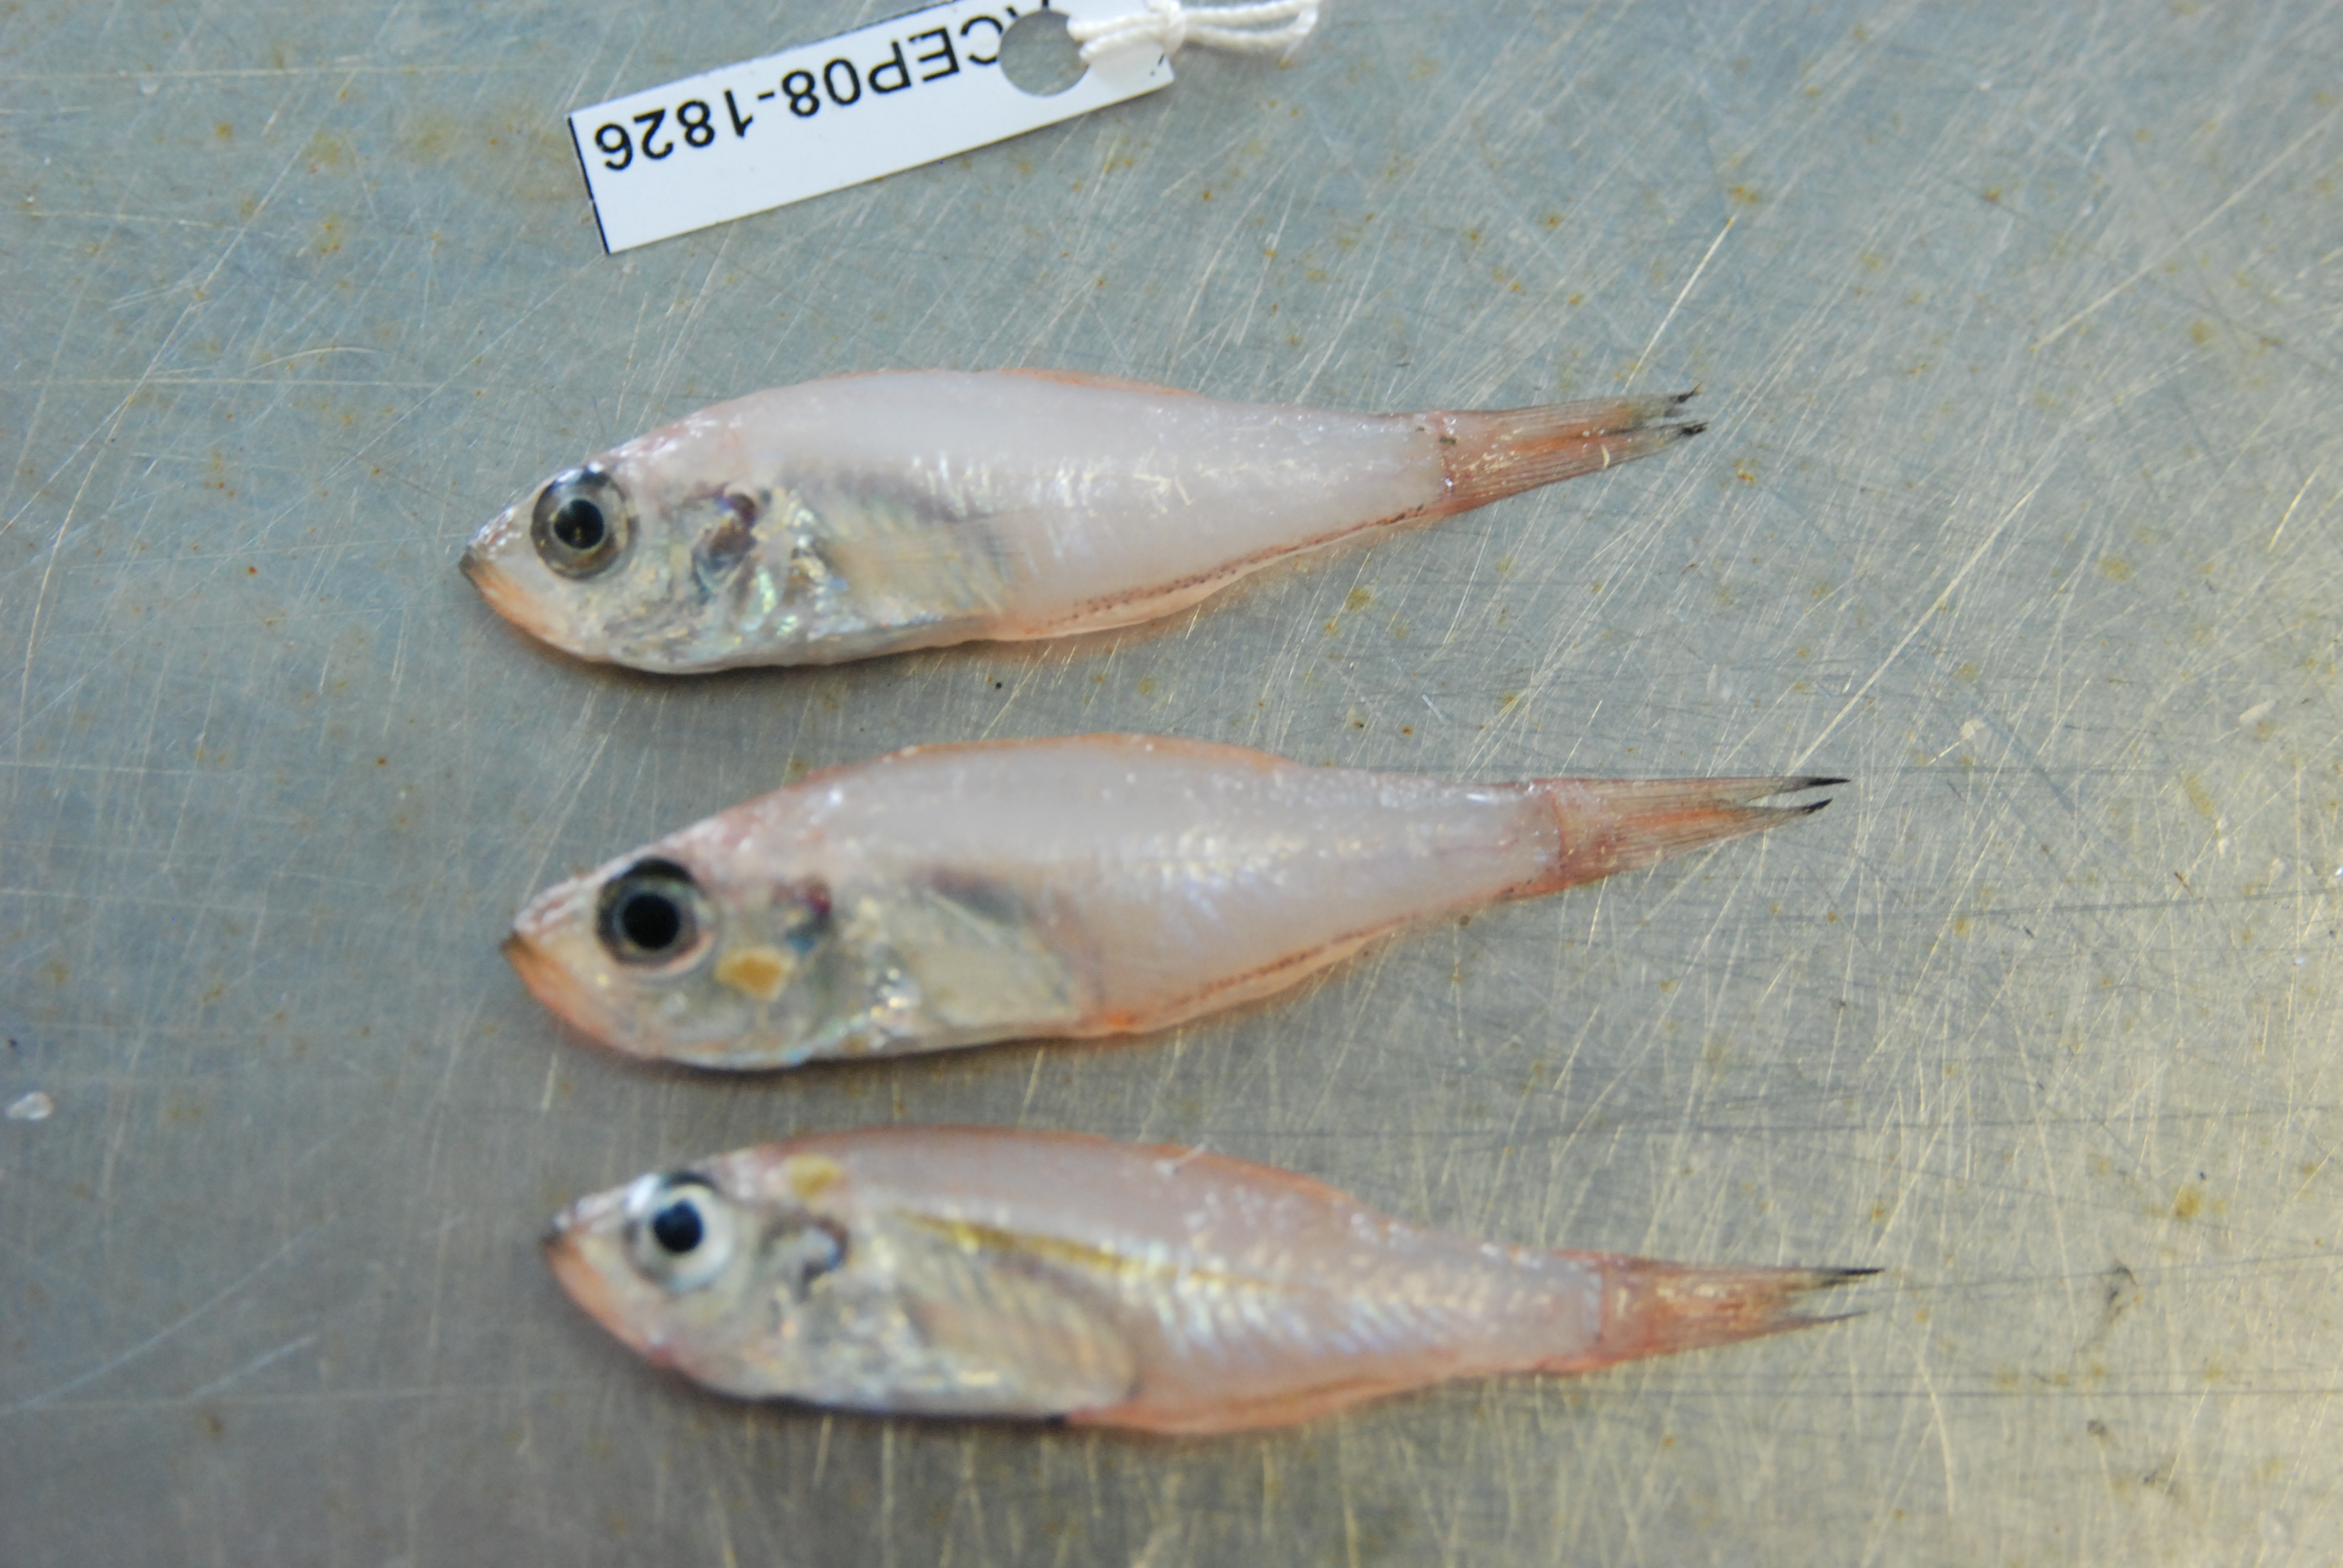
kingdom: Animalia
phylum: Chordata
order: Perciformes
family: Apogonidae
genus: Rhabdamia
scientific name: Rhabdamia gracilis
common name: Luminous cardinalfish
